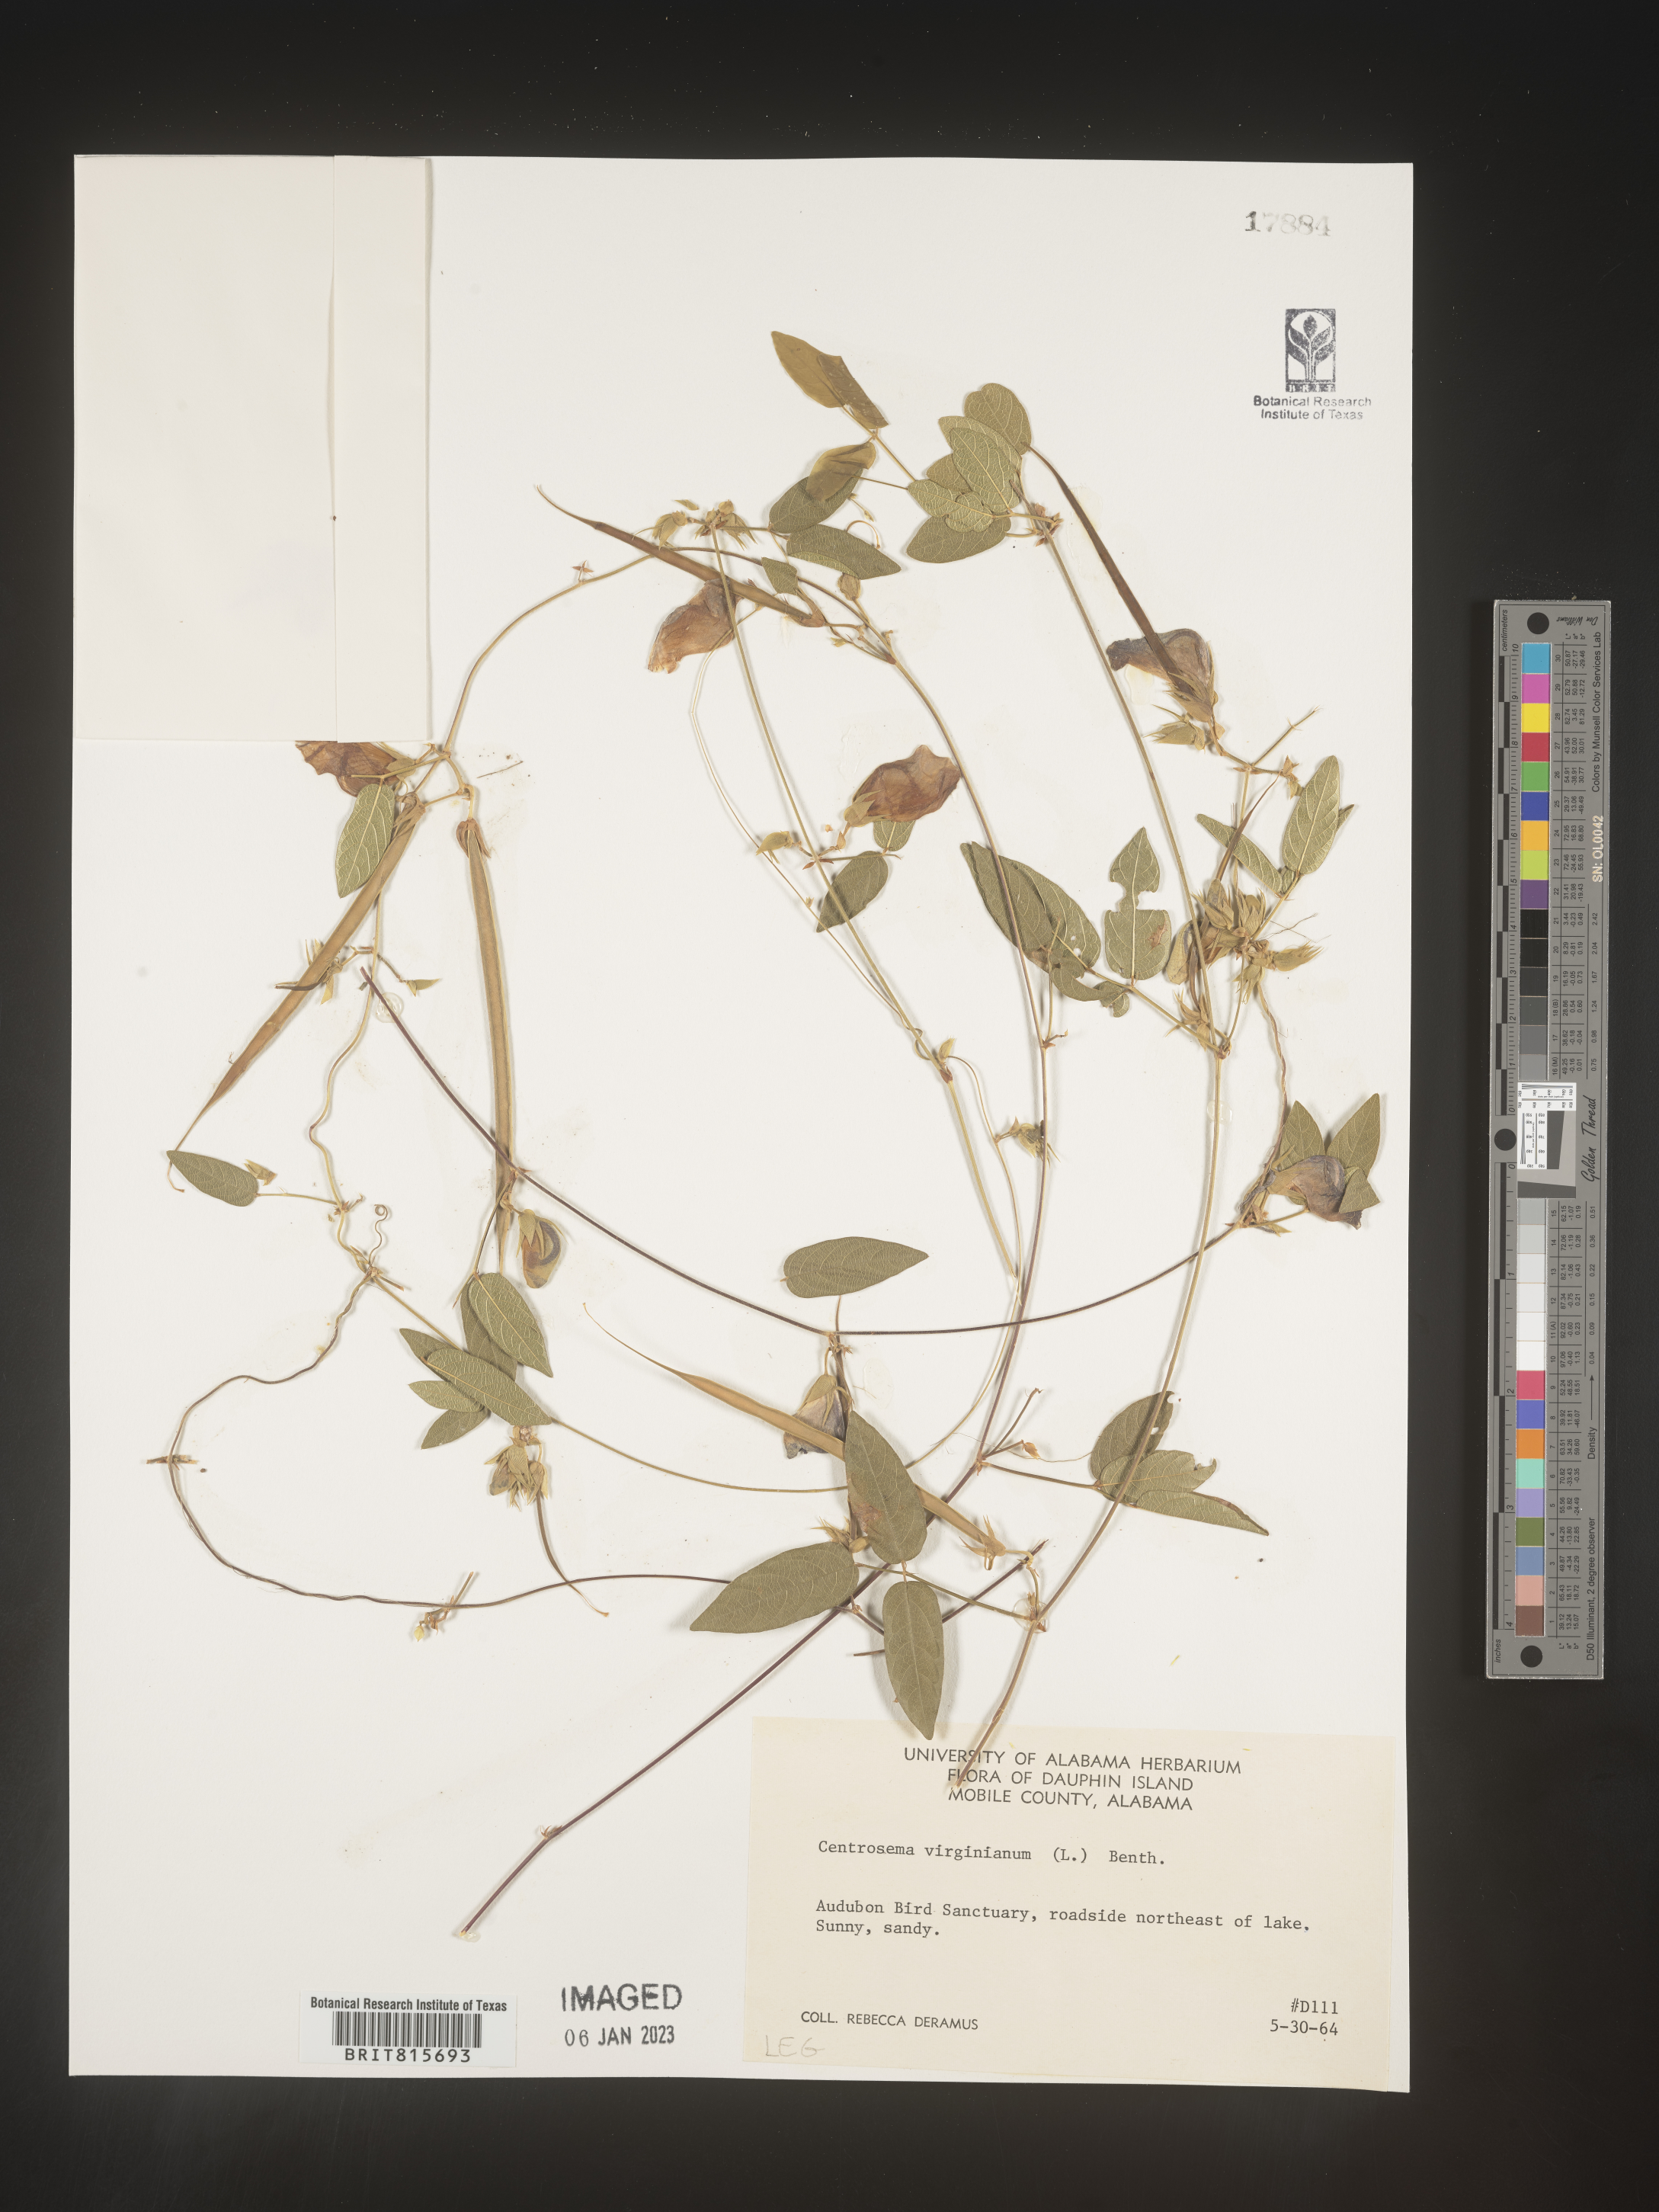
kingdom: Plantae
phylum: Tracheophyta
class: Magnoliopsida
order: Fabales
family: Fabaceae
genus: Centrosema
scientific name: Centrosema virginianum
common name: Butterfly-pea
